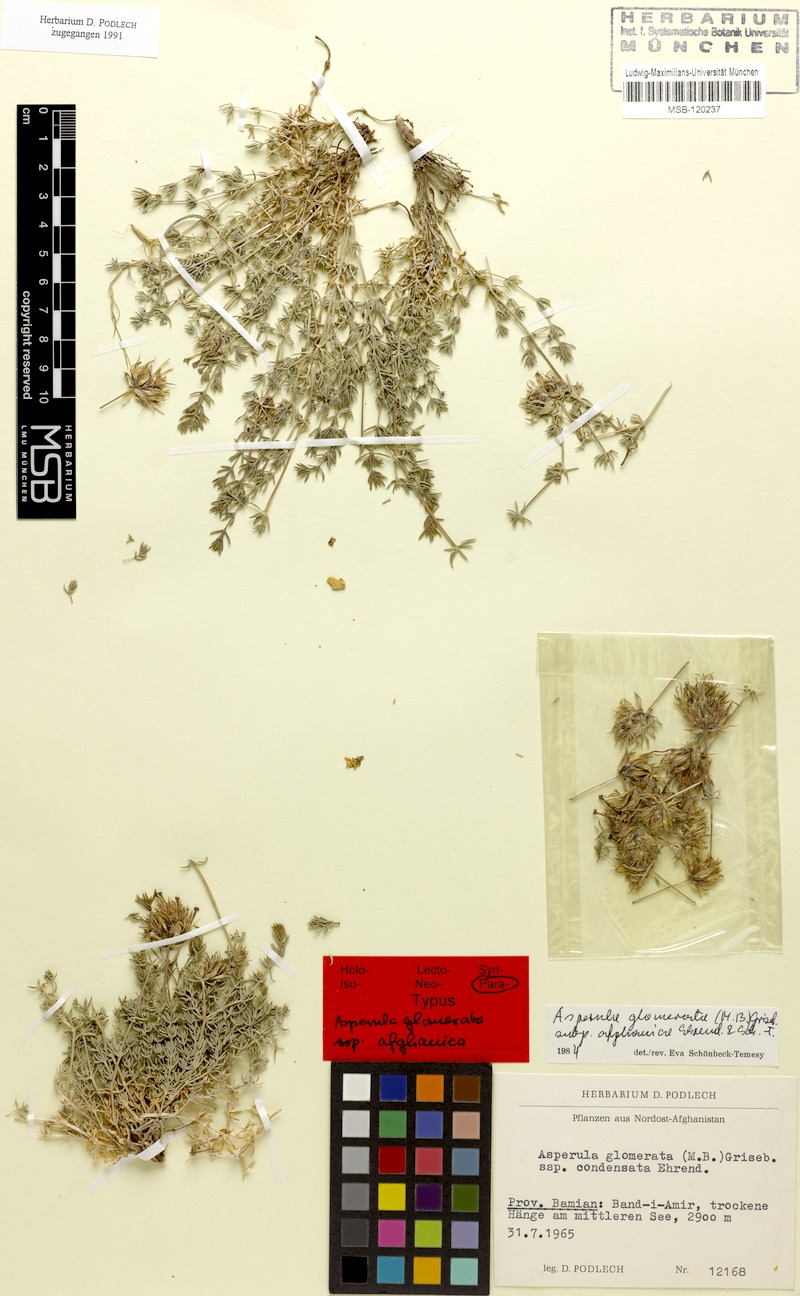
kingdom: Plantae
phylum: Tracheophyta
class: Magnoliopsida
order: Gentianales
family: Rubiaceae
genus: Asperula
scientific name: Asperula glomerata
